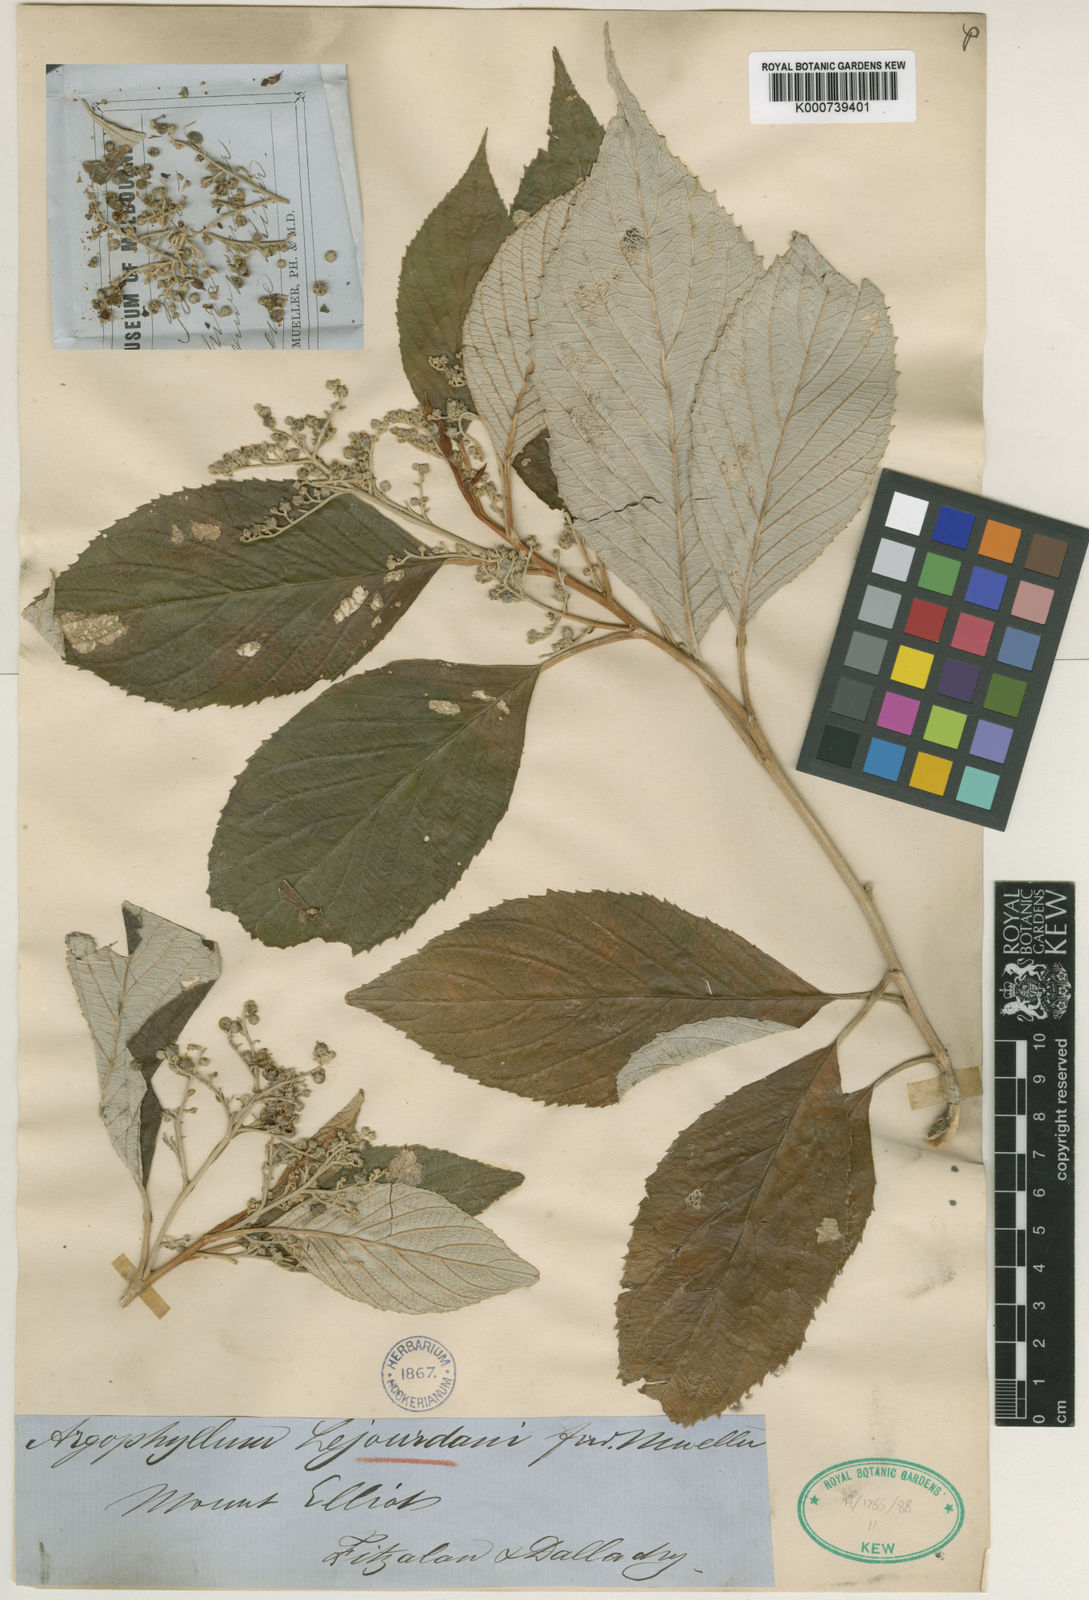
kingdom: Plantae
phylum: Tracheophyta
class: Magnoliopsida
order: Asterales
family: Argophyllaceae
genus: Argophyllum
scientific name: Argophyllum lejourdanii
